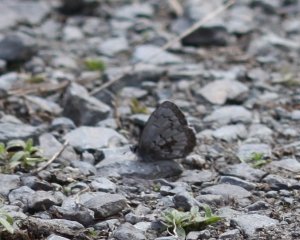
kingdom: Animalia
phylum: Arthropoda
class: Insecta
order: Lepidoptera
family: Lycaenidae
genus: Celastrina
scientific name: Celastrina lucia
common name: Northern Spring Azure
